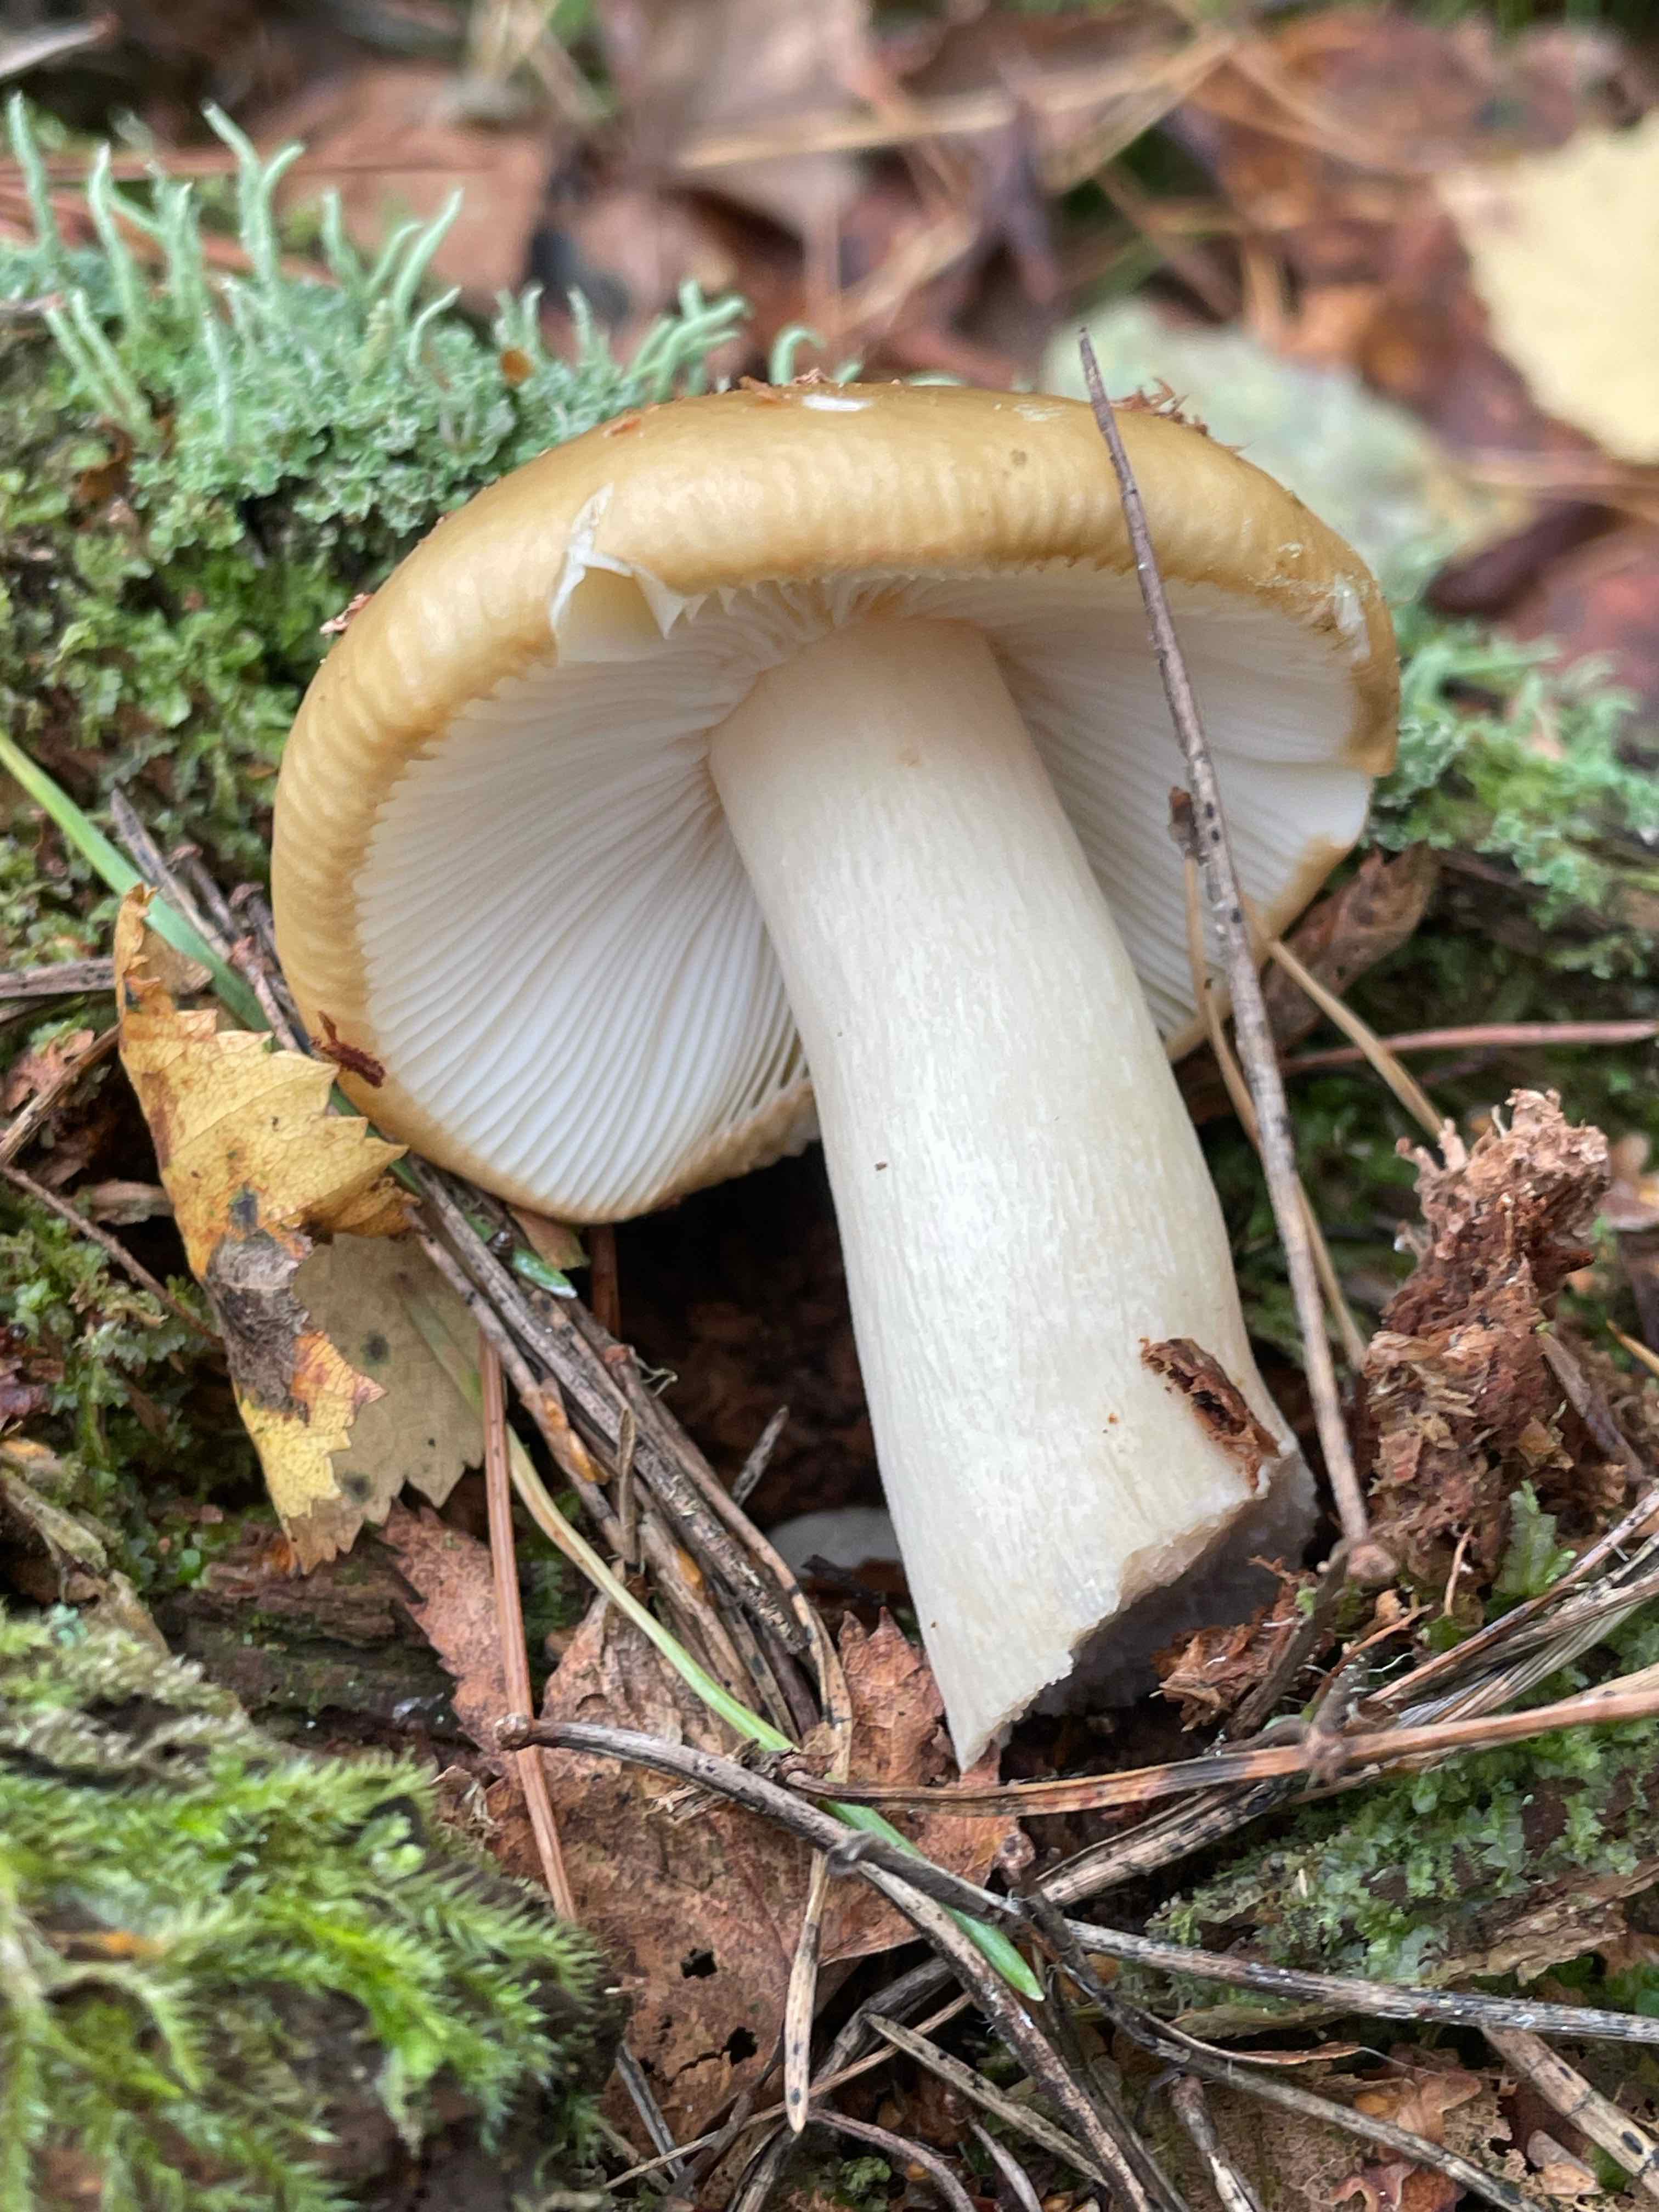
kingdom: Fungi
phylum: Basidiomycota
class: Agaricomycetes
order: Russulales
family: Russulaceae
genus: Russula
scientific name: Russula ochroleuca
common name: okkergul skørhat
